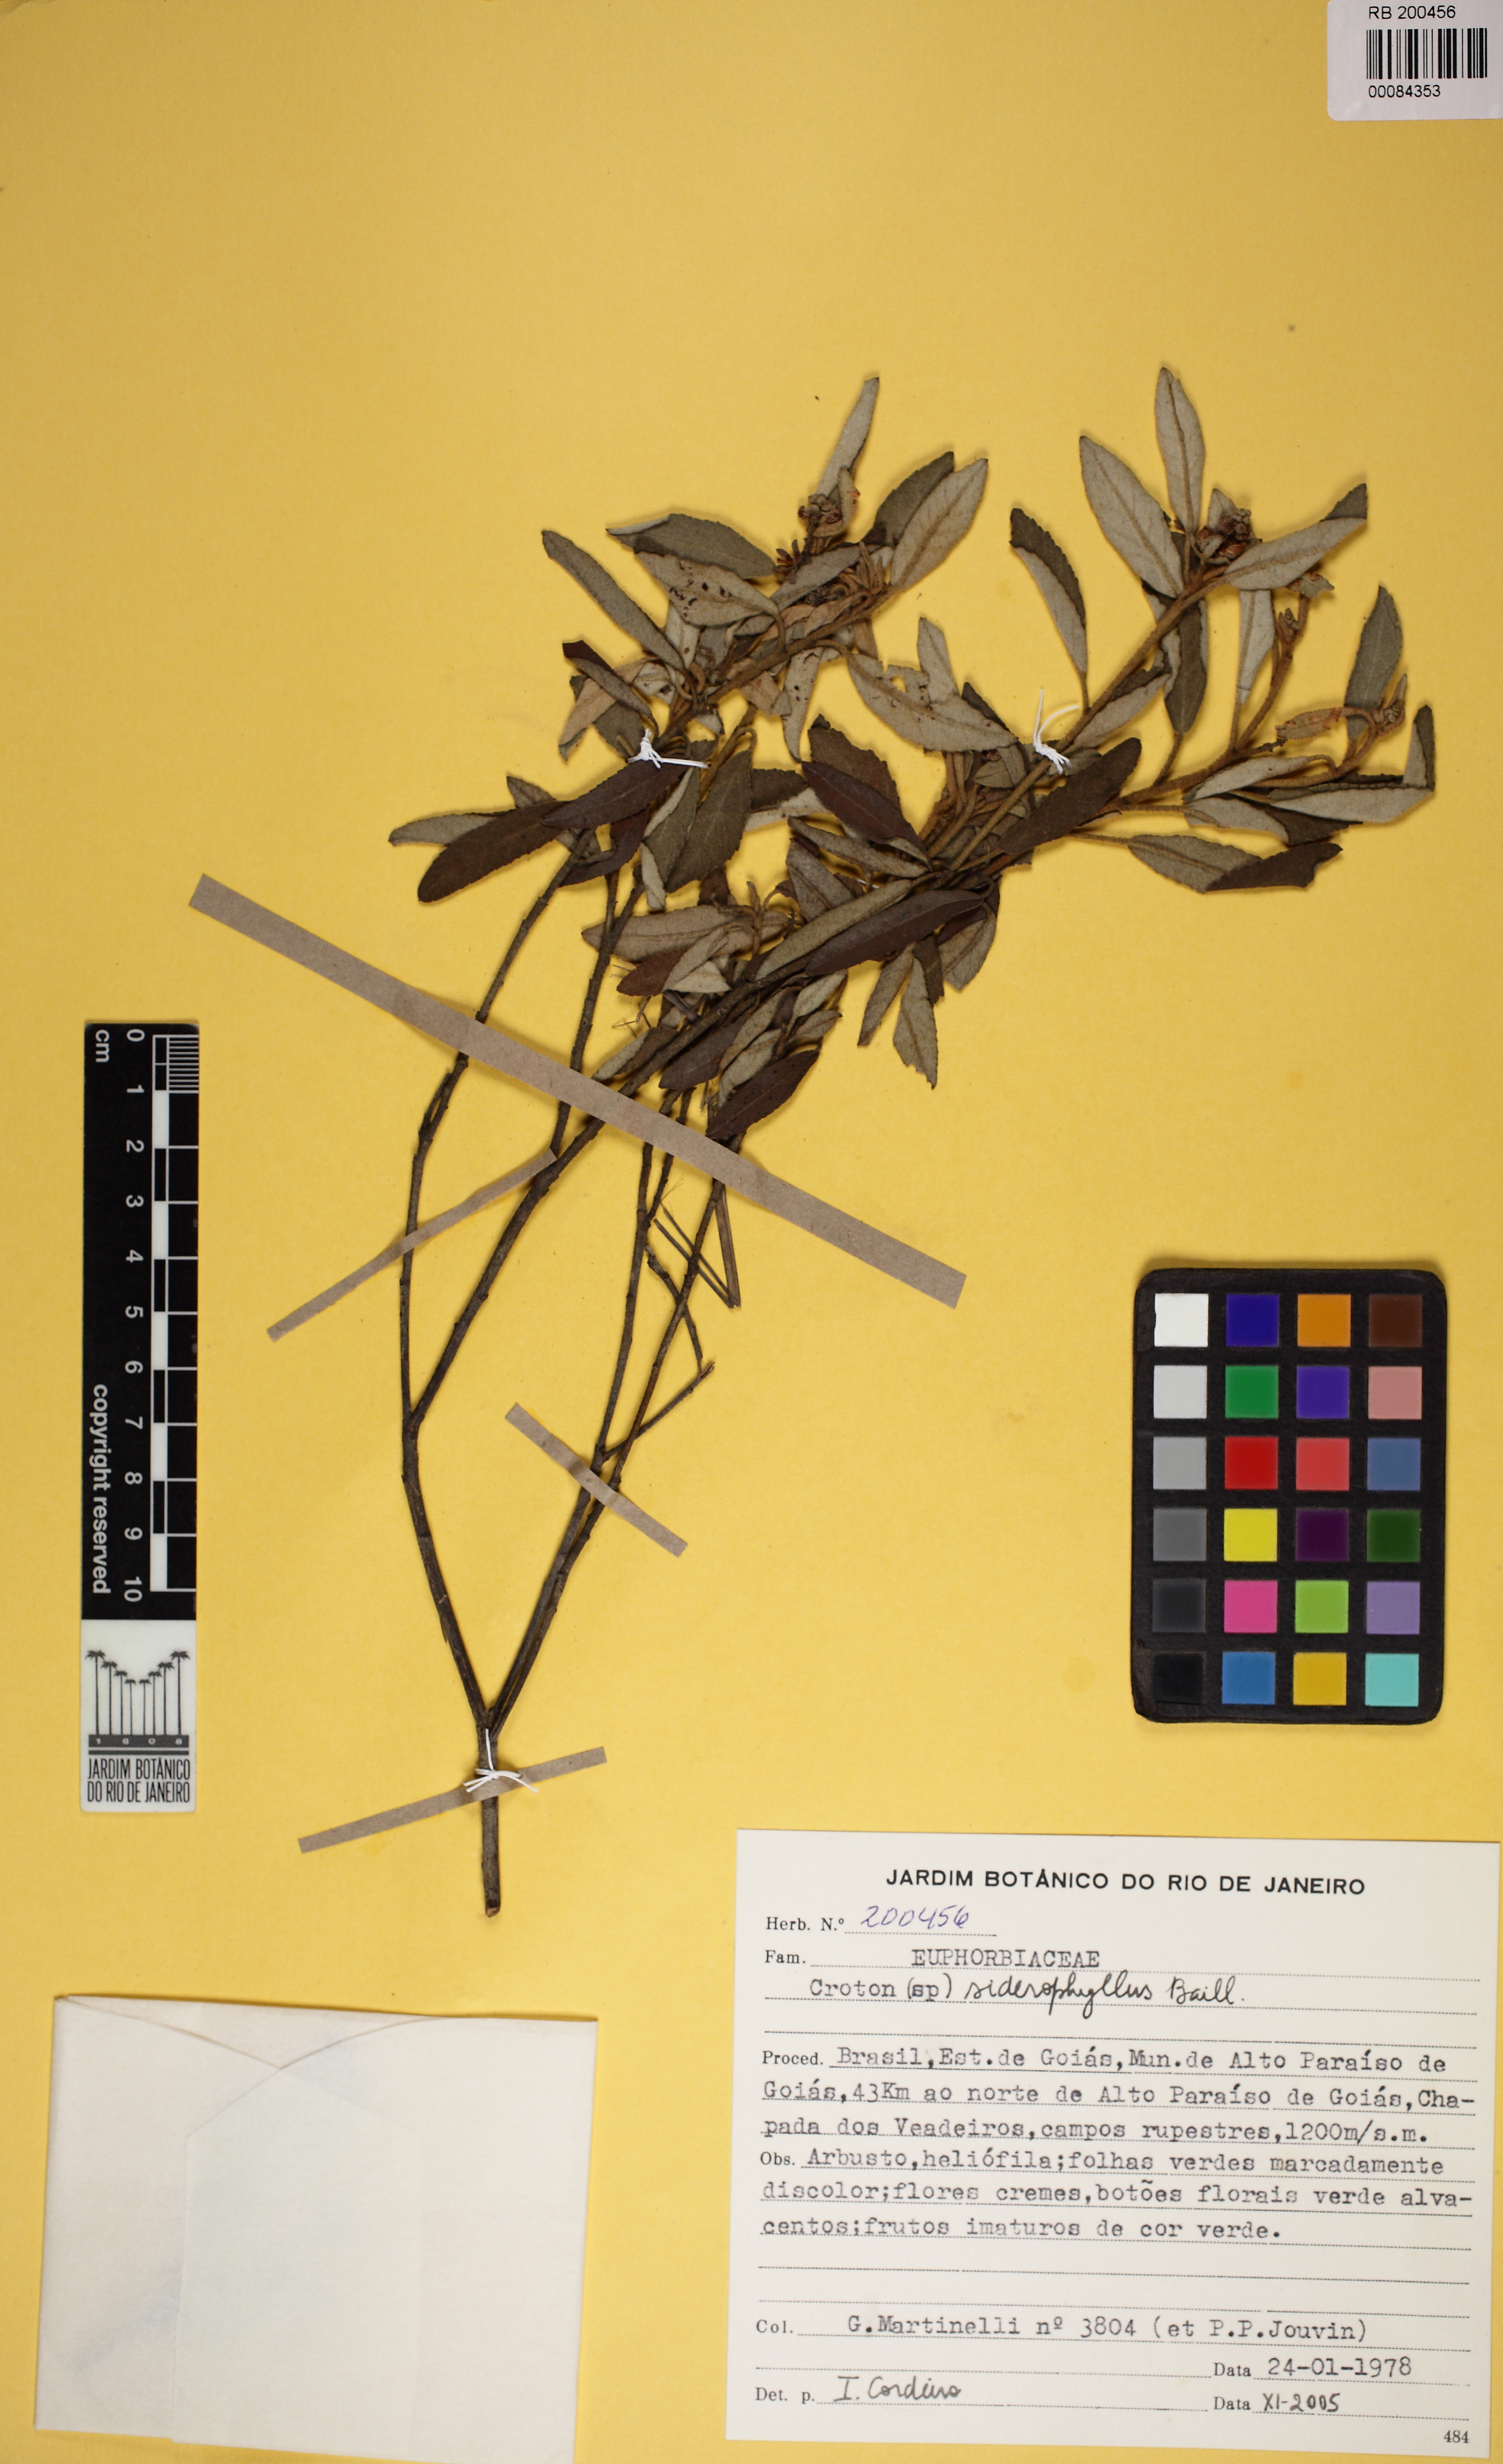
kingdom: Plantae
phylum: Tracheophyta
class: Magnoliopsida
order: Malpighiales
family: Euphorbiaceae
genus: Croton
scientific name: Croton siderophyllus
